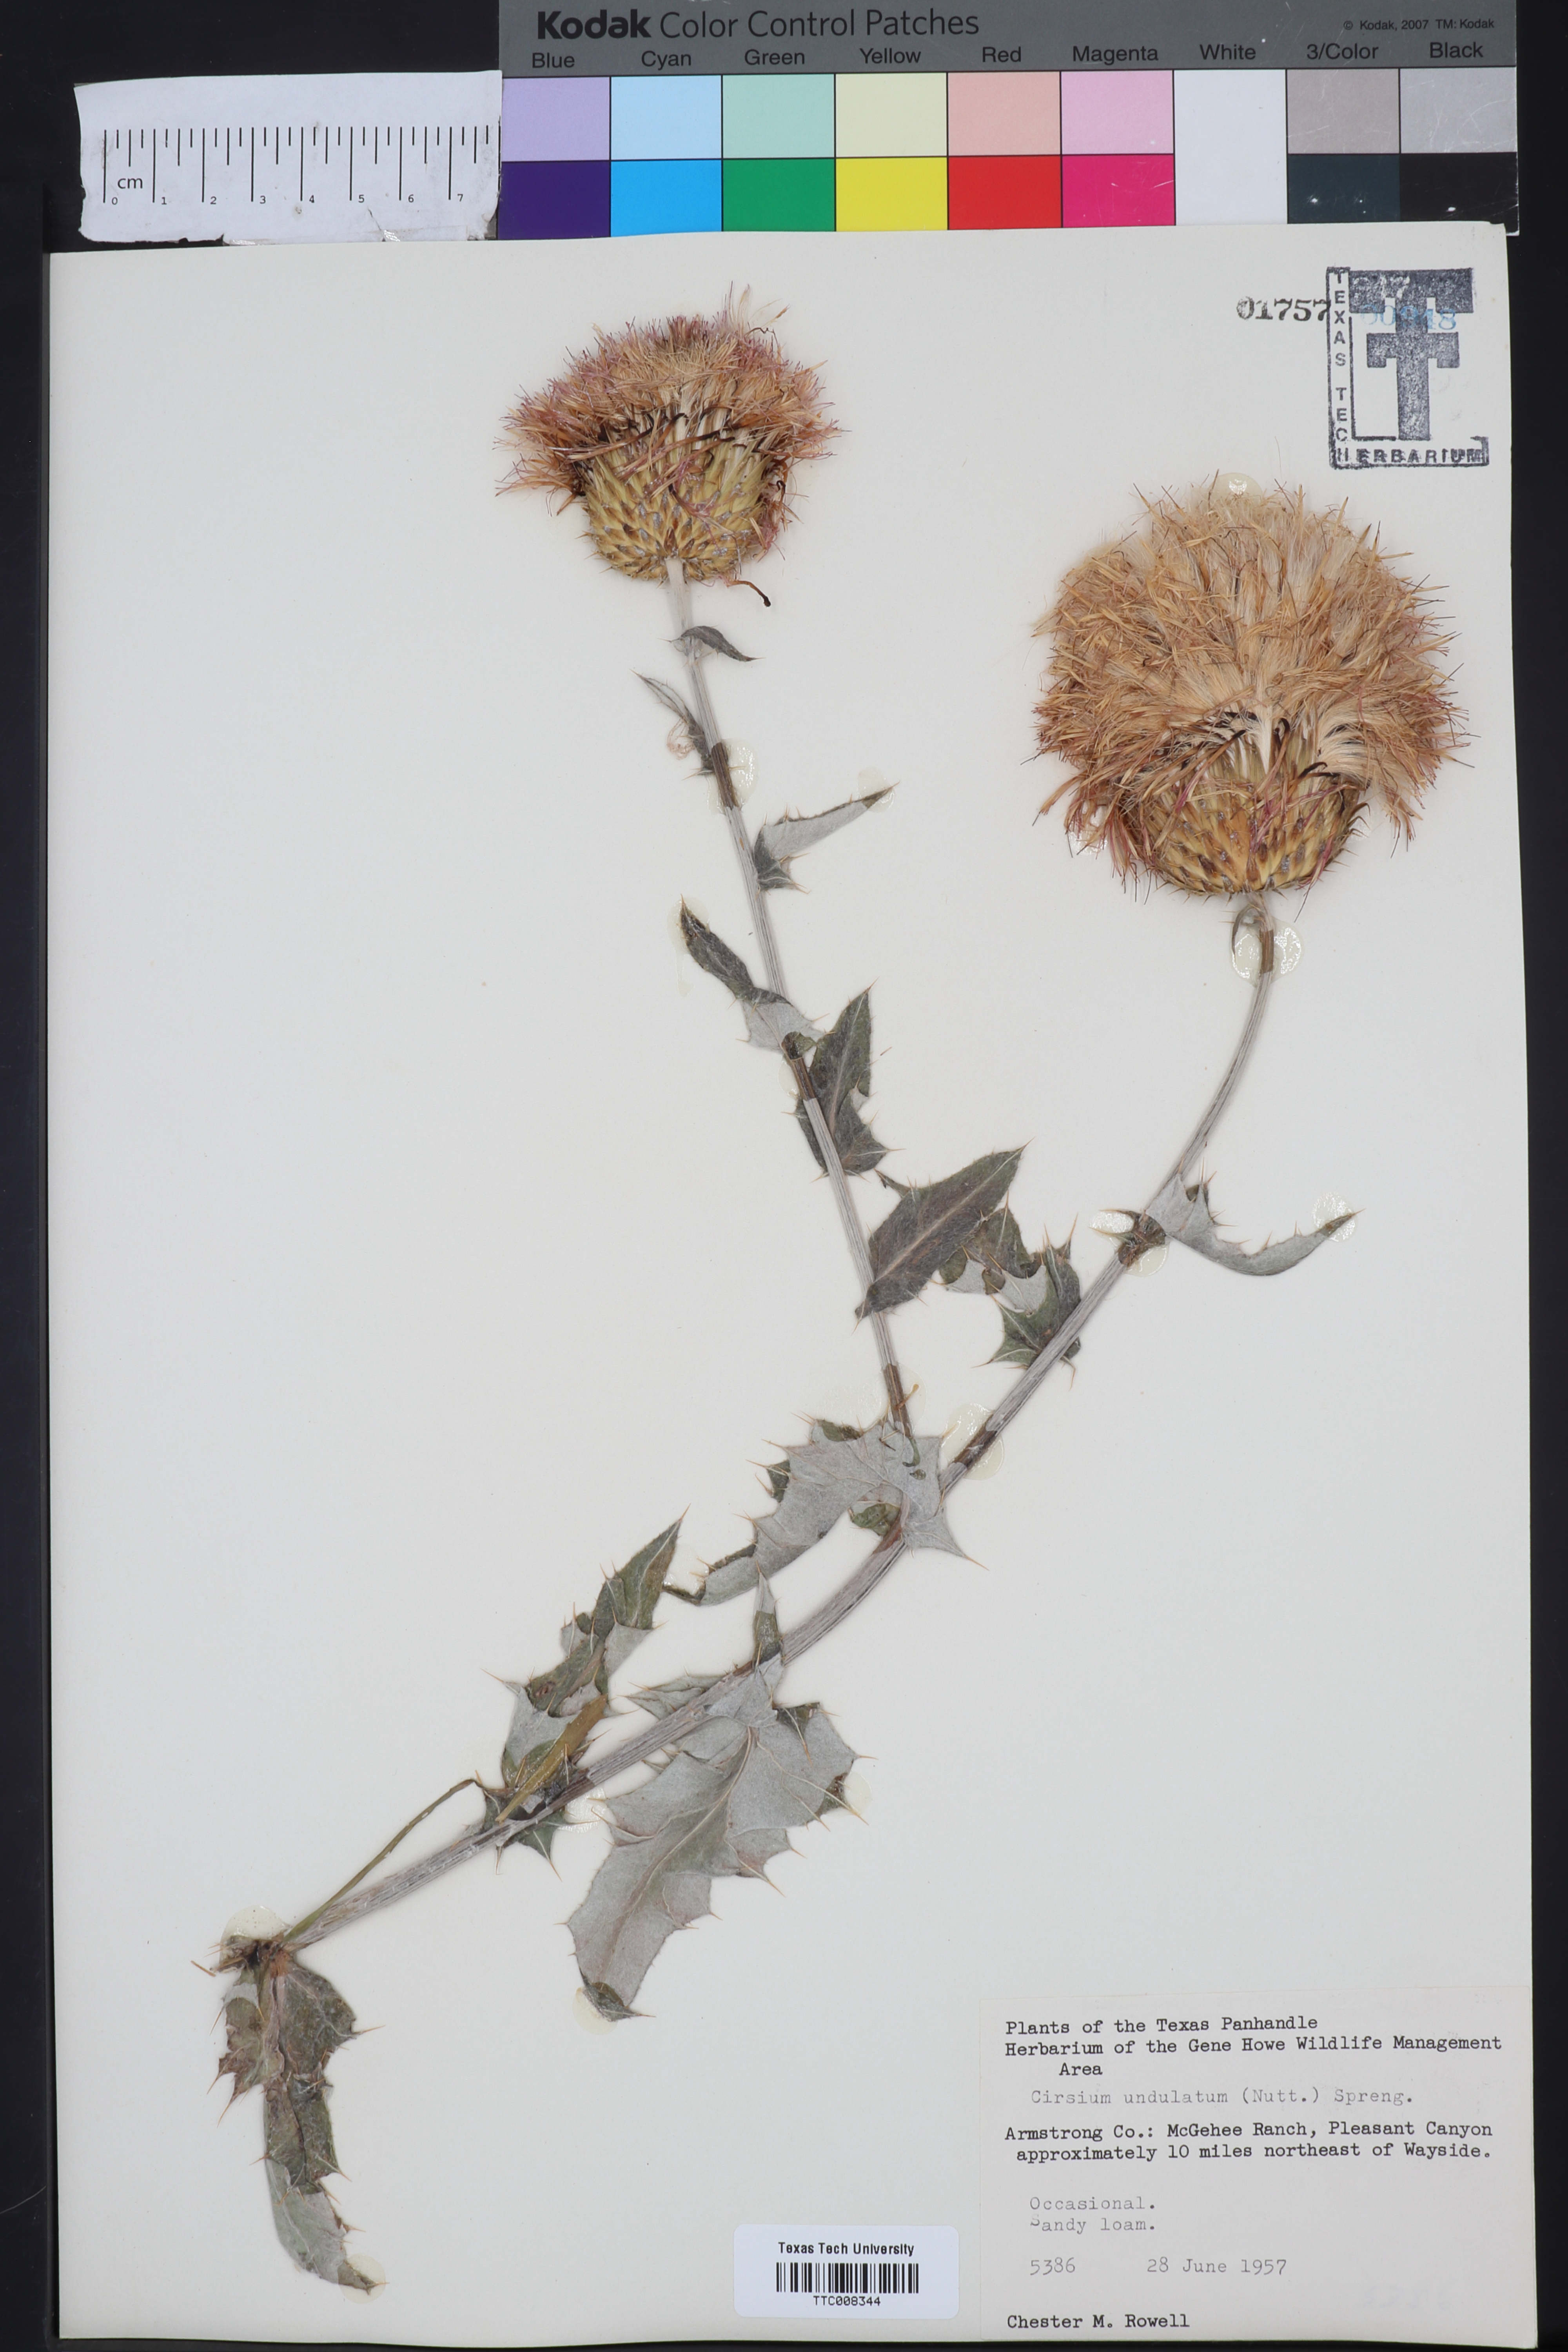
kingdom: Plantae
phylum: Tracheophyta
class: Magnoliopsida
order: Asterales
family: Asteraceae
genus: Cirsium
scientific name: Cirsium undulatum
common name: Pasture thistle
